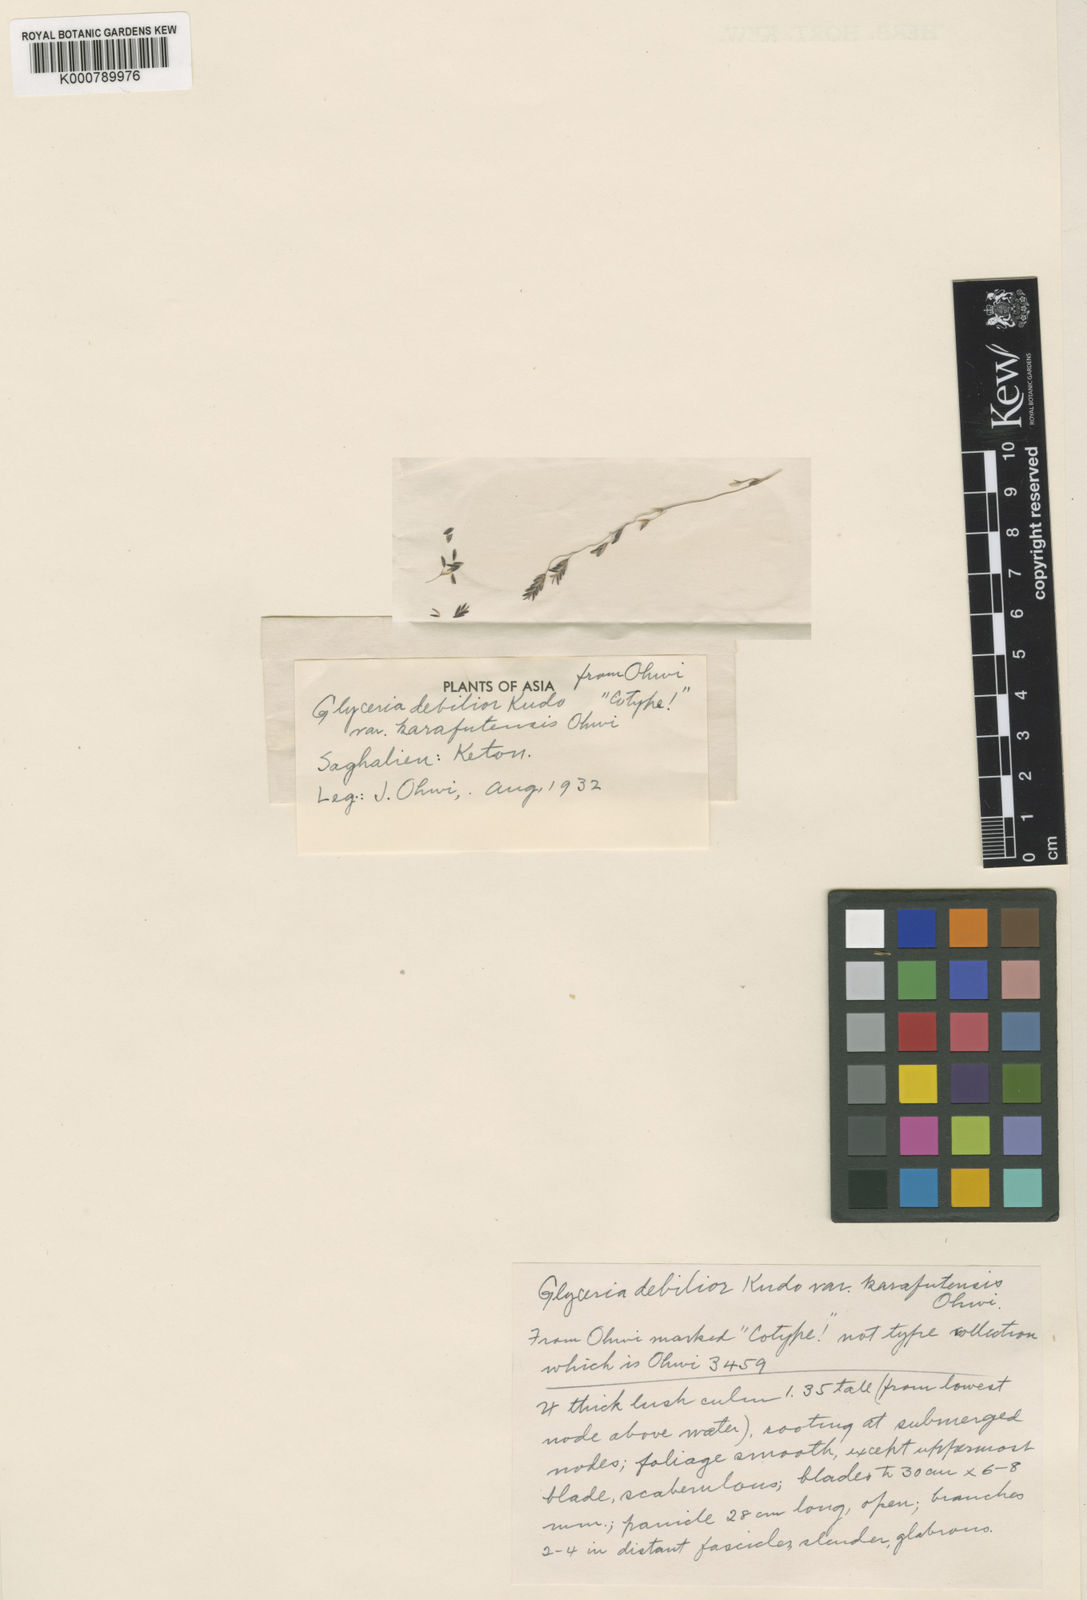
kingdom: Plantae
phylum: Tracheophyta
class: Liliopsida
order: Poales
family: Poaceae
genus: Glyceria
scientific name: Glyceria lithuanica
